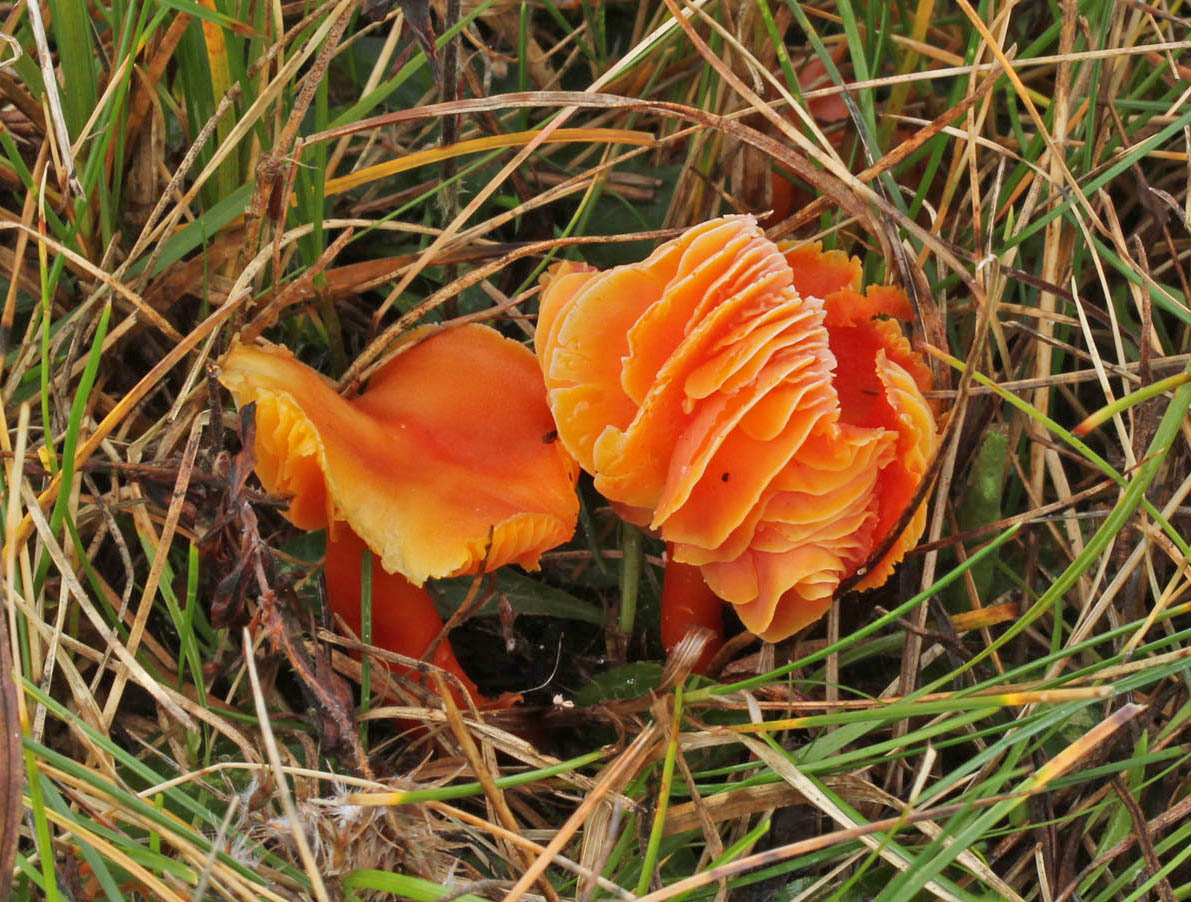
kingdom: Fungi
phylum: Basidiomycota
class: Agaricomycetes
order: Agaricales
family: Hygrophoraceae
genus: Hygrocybe
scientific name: Hygrocybe miniata
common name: mønje-vokshat
